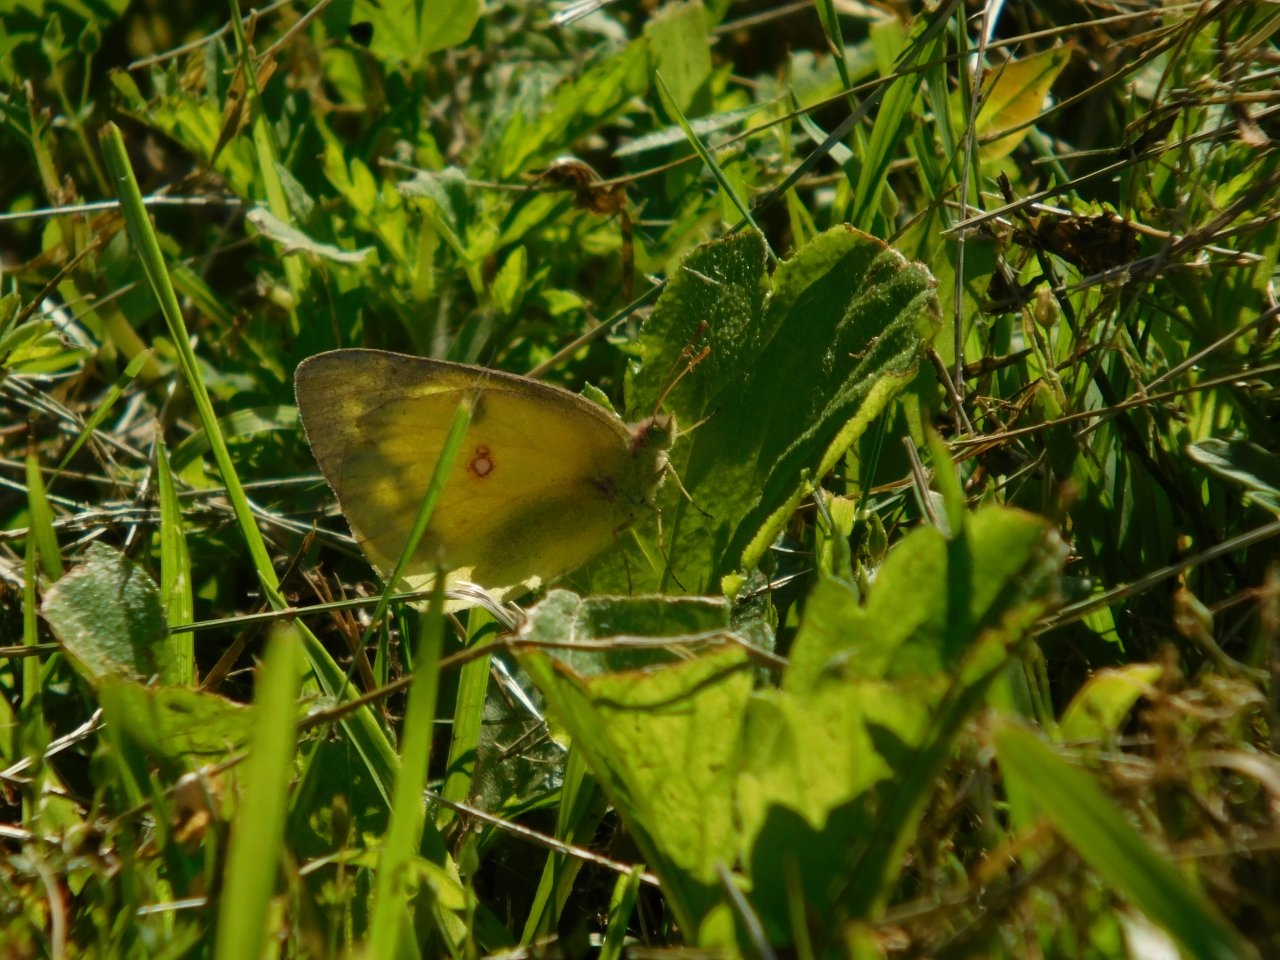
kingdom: Animalia
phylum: Arthropoda
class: Insecta
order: Lepidoptera
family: Pieridae
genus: Colias
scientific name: Colias philodice
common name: Clouded Sulphur
